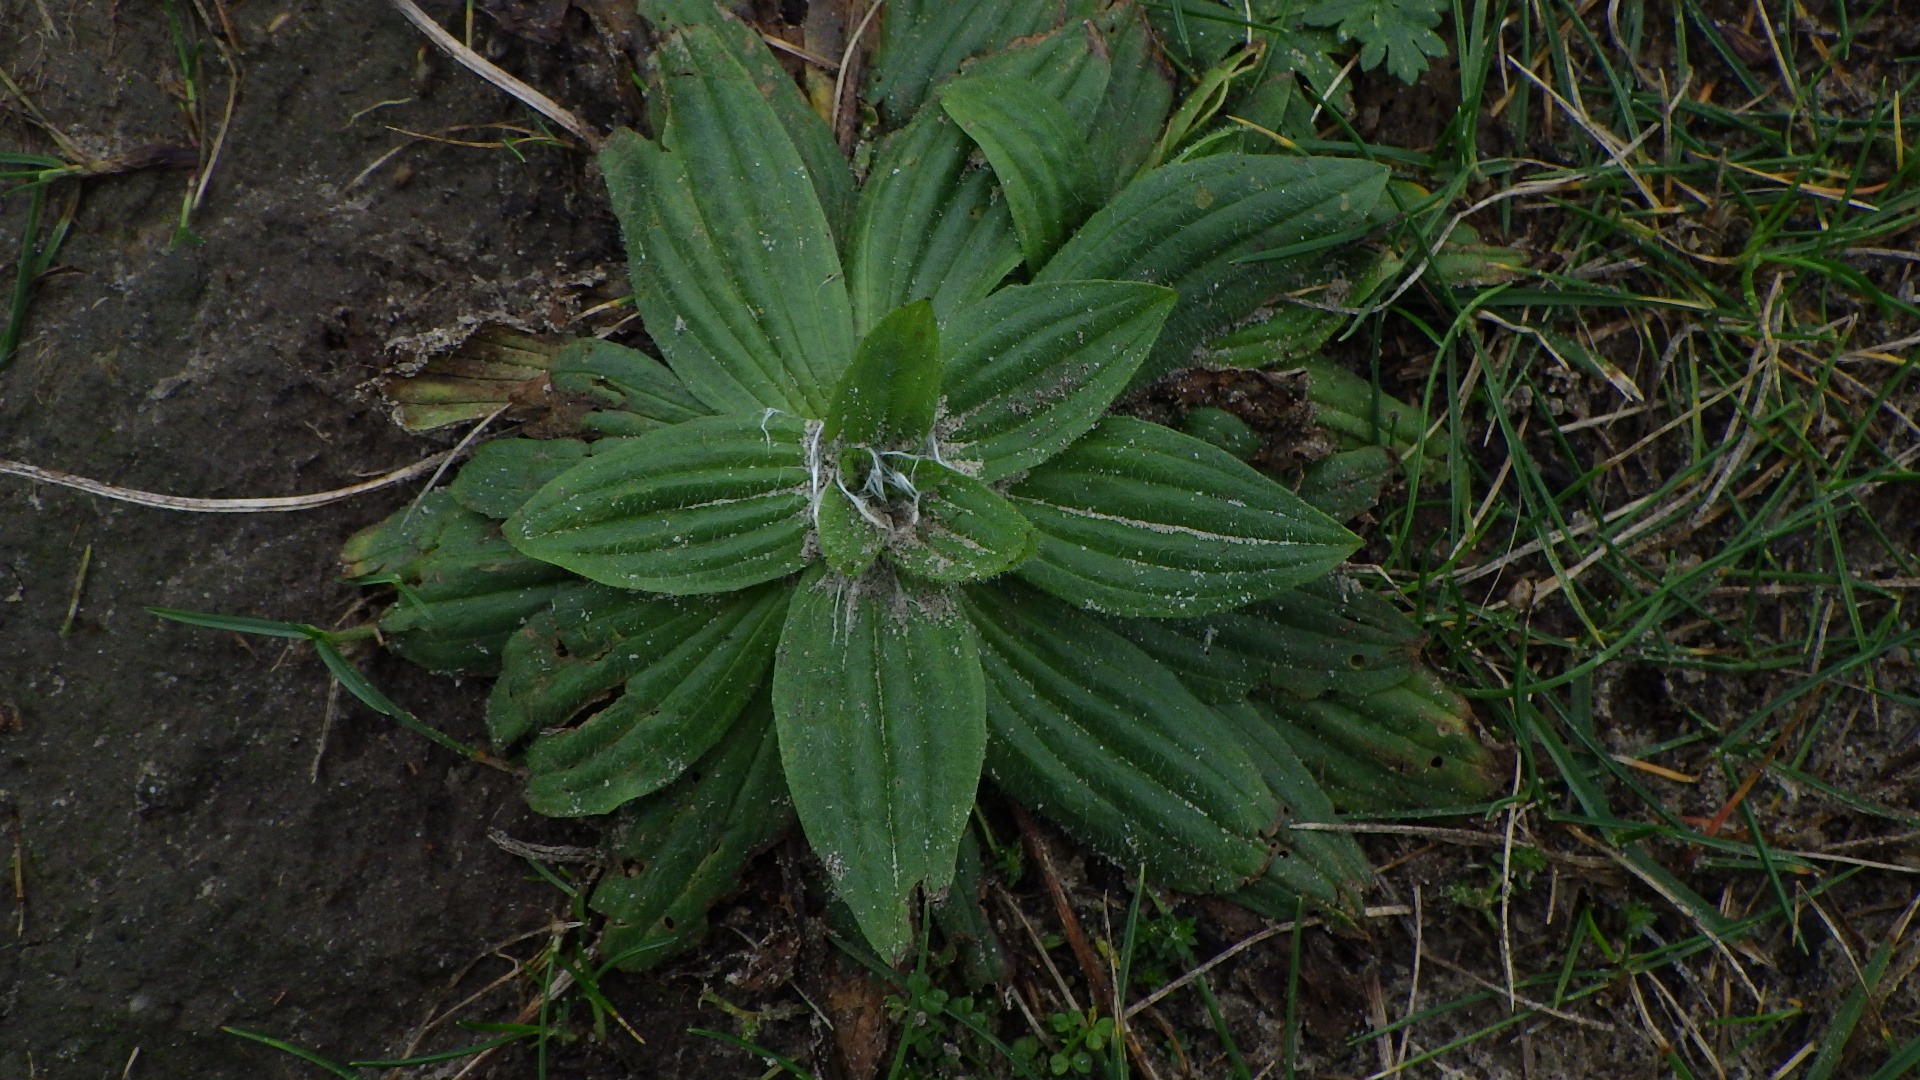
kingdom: Plantae
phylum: Tracheophyta
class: Magnoliopsida
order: Lamiales
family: Plantaginaceae
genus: Plantago
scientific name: Plantago lanceolata
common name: Lancet-vejbred
